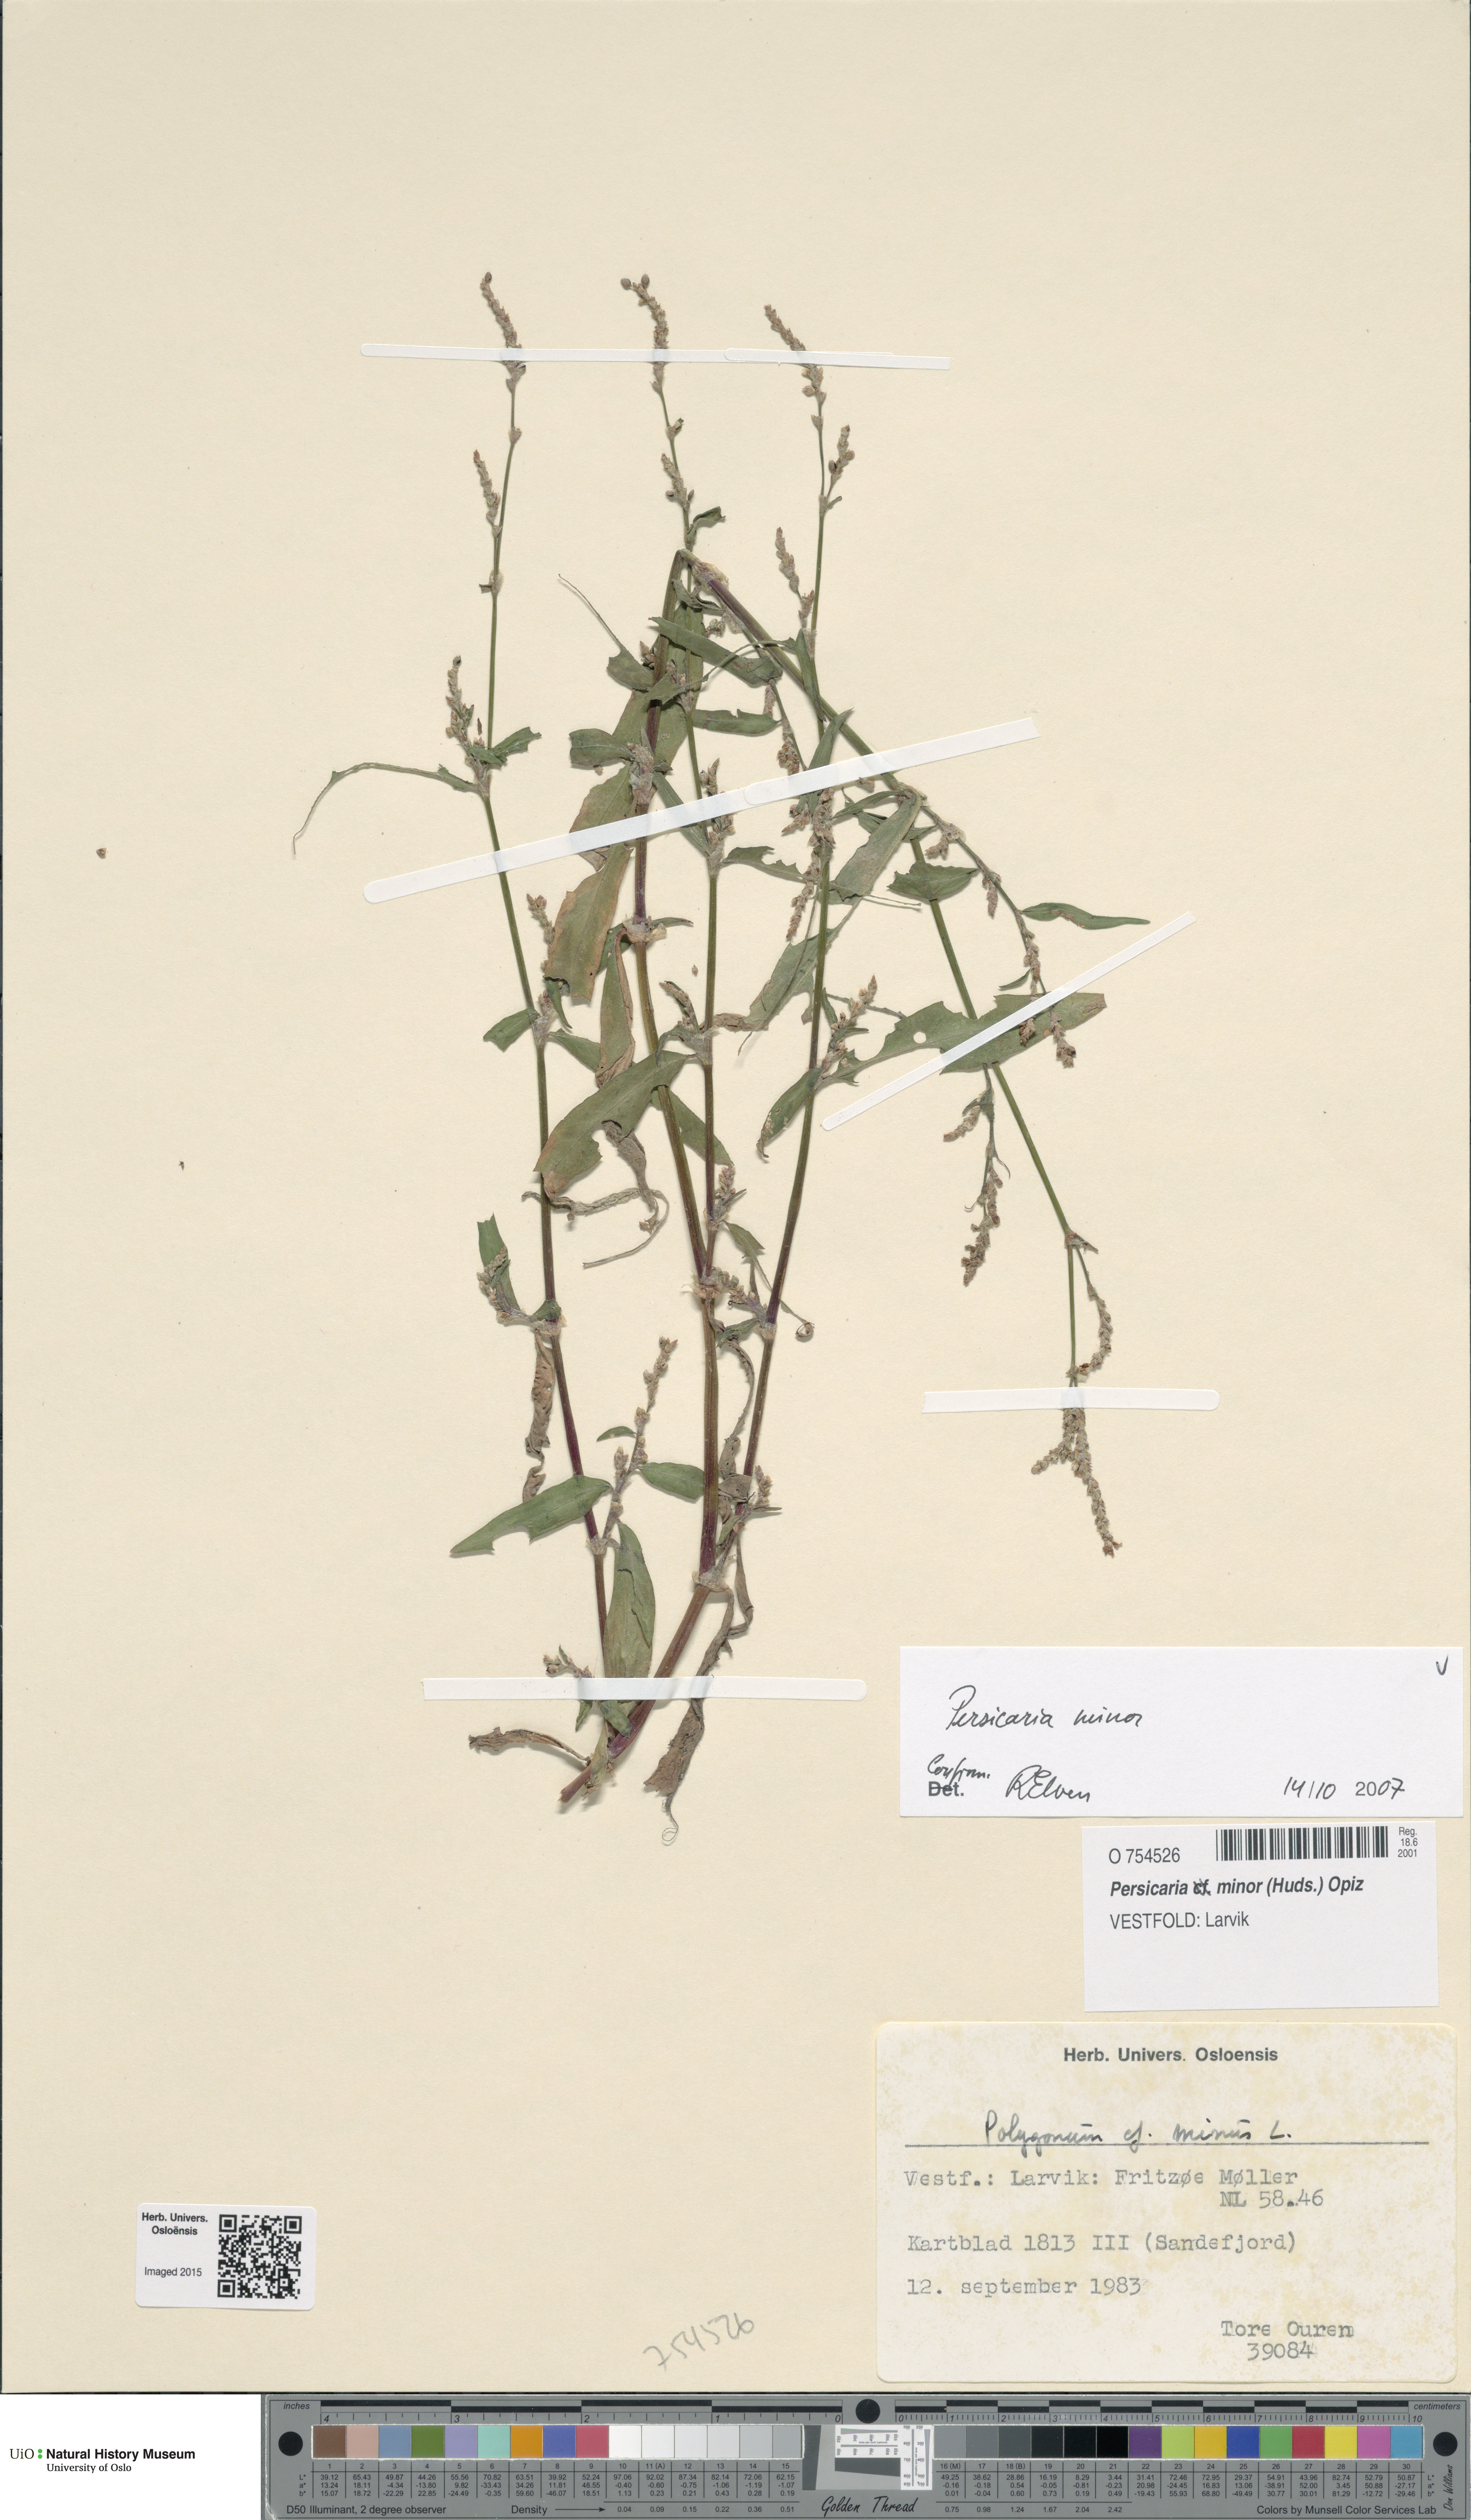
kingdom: Plantae
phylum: Tracheophyta
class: Magnoliopsida
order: Caryophyllales
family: Polygonaceae
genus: Persicaria
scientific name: Persicaria minor
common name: Small water-pepper
